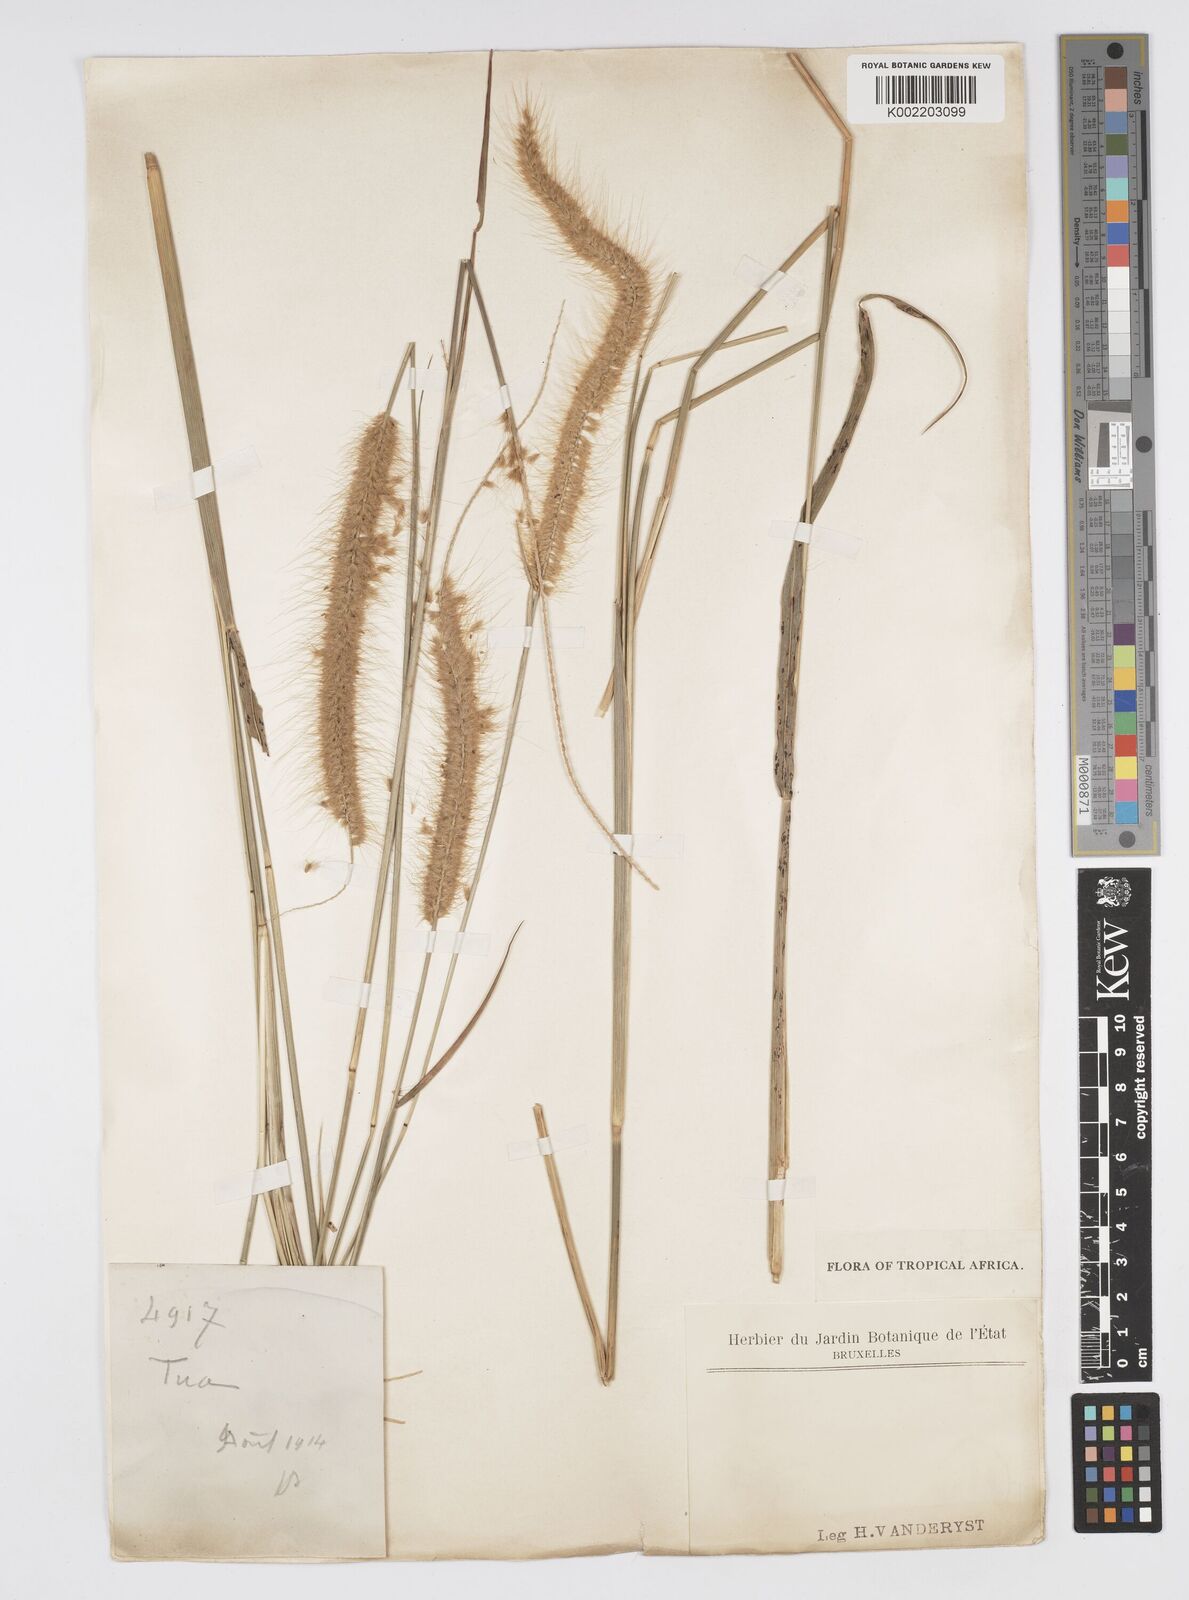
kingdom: Plantae
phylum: Tracheophyta
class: Liliopsida
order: Poales
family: Poaceae
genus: Setaria
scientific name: Setaria parviflora
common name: Knotroot bristle-grass
